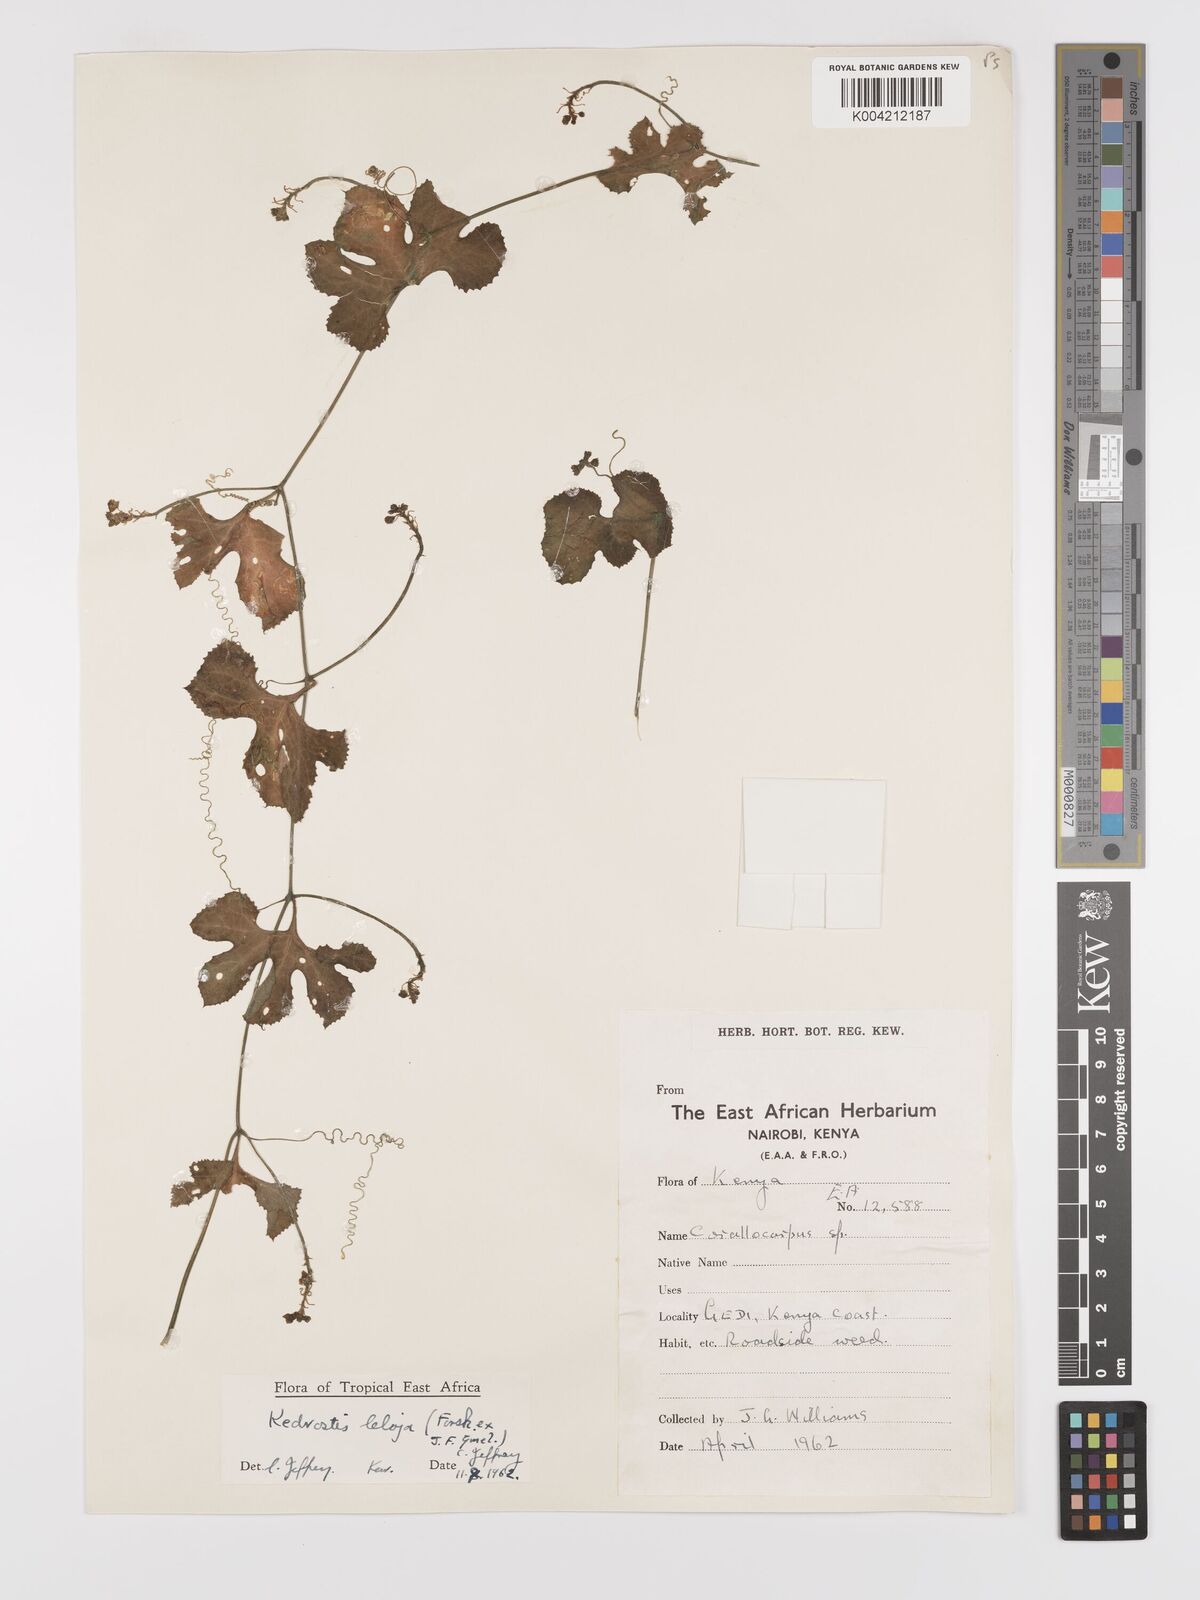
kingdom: Plantae
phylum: Tracheophyta
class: Magnoliopsida
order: Cucurbitales
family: Cucurbitaceae
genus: Kedrostis
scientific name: Kedrostis abdallae
